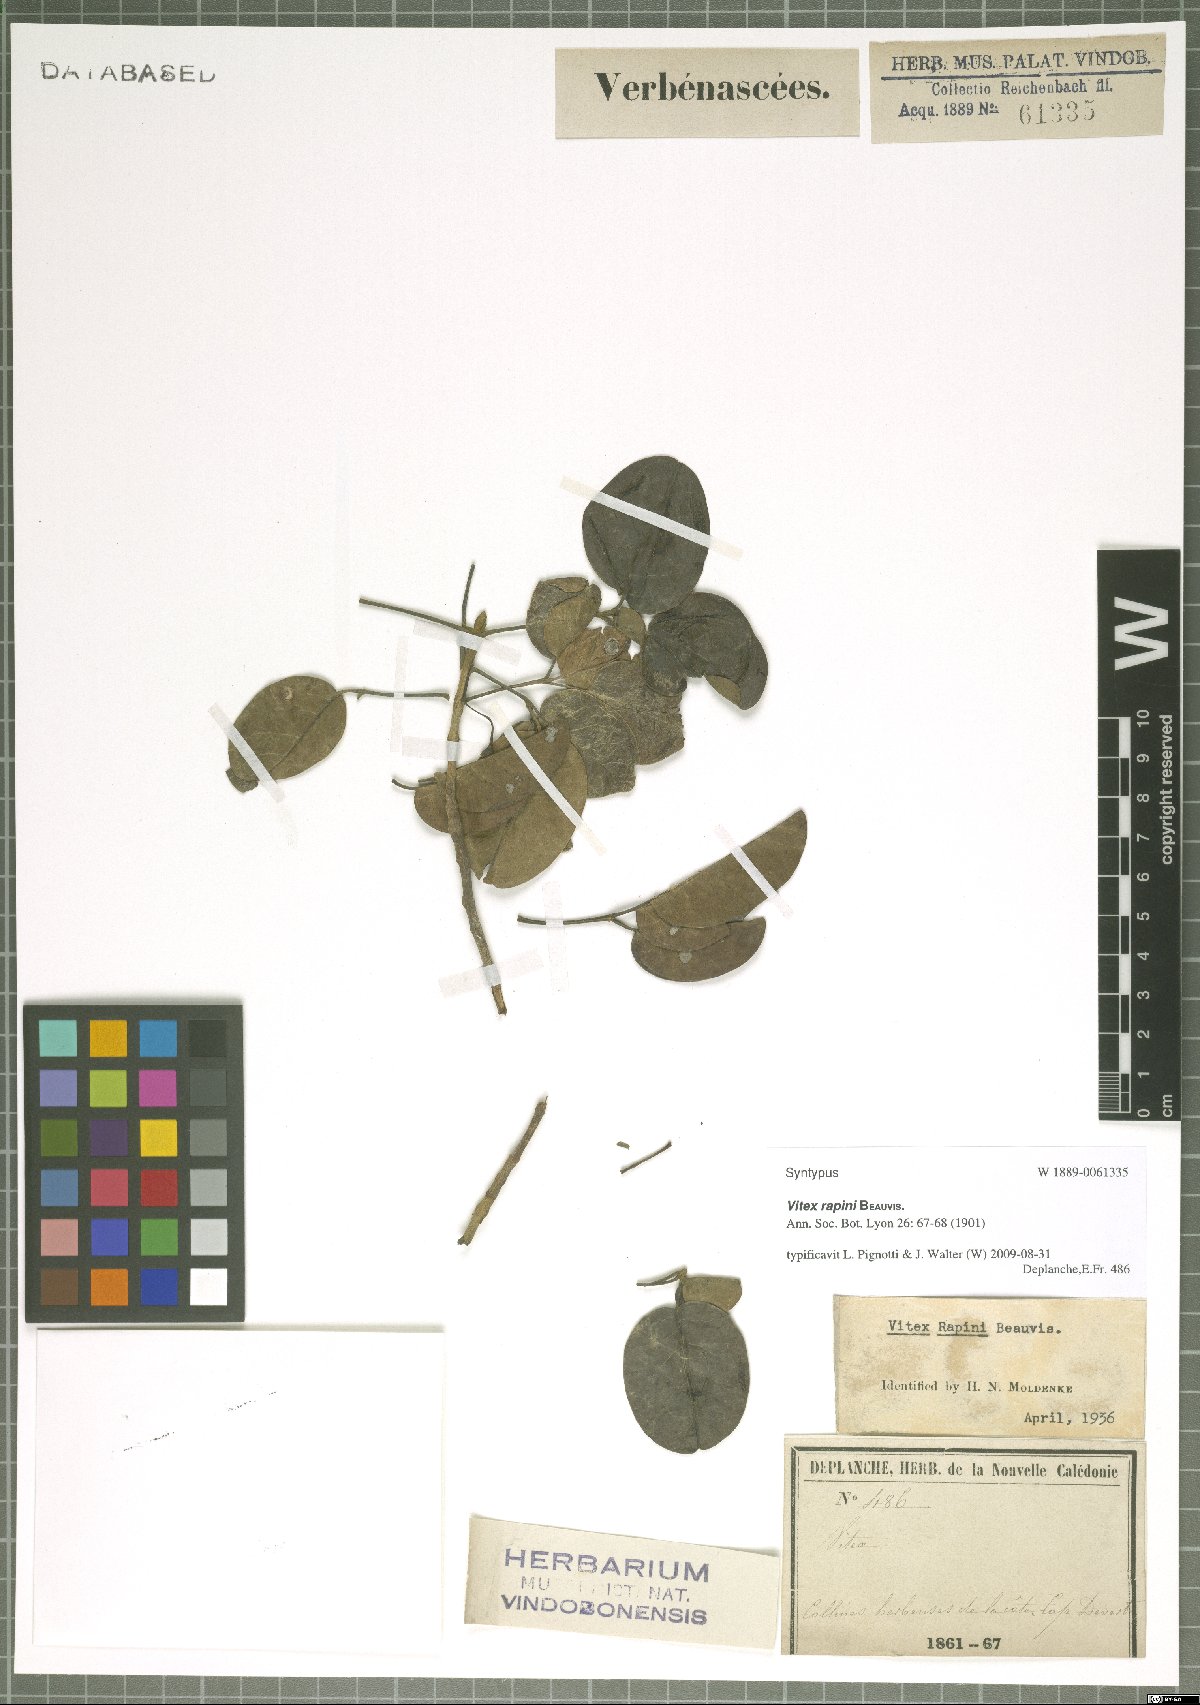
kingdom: Plantae
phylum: Tracheophyta
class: Magnoliopsida
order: Lamiales
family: Lamiaceae
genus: Vitex
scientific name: Vitex collina
